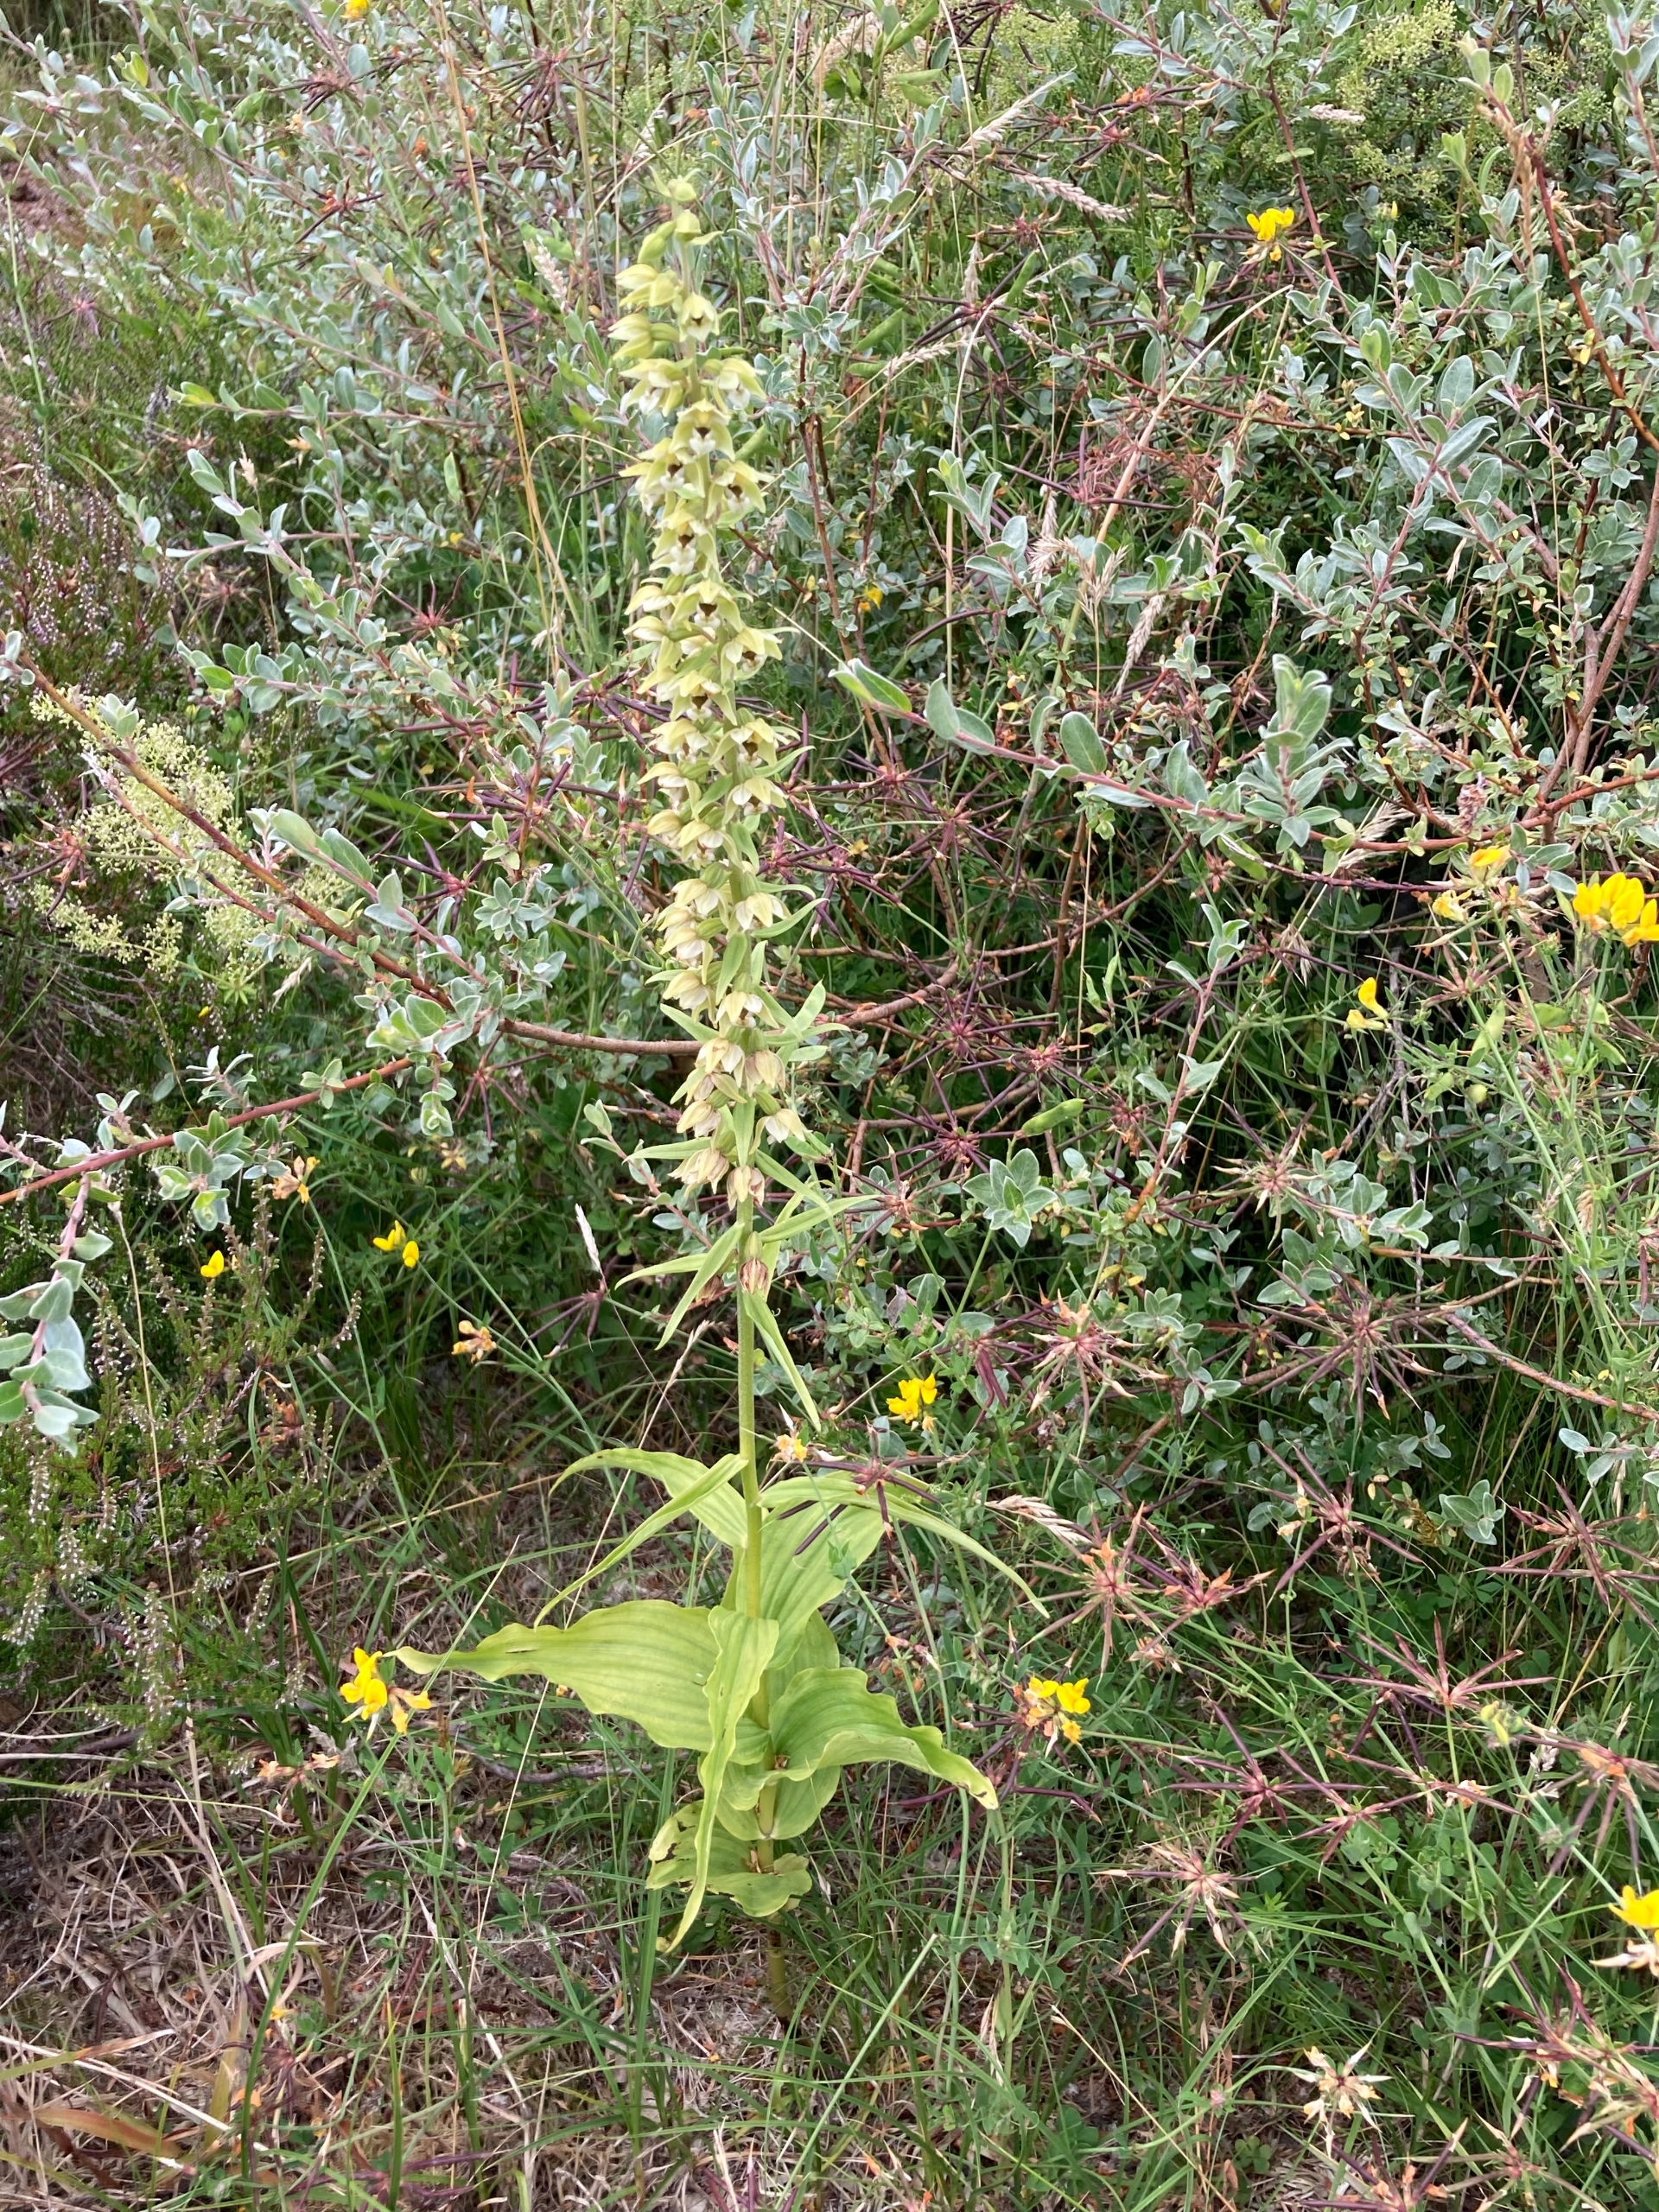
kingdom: Plantae
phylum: Tracheophyta
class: Liliopsida
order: Asparagales
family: Orchidaceae
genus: Epipactis
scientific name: Epipactis helleborine
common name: Skov-hullæbe (underart)
